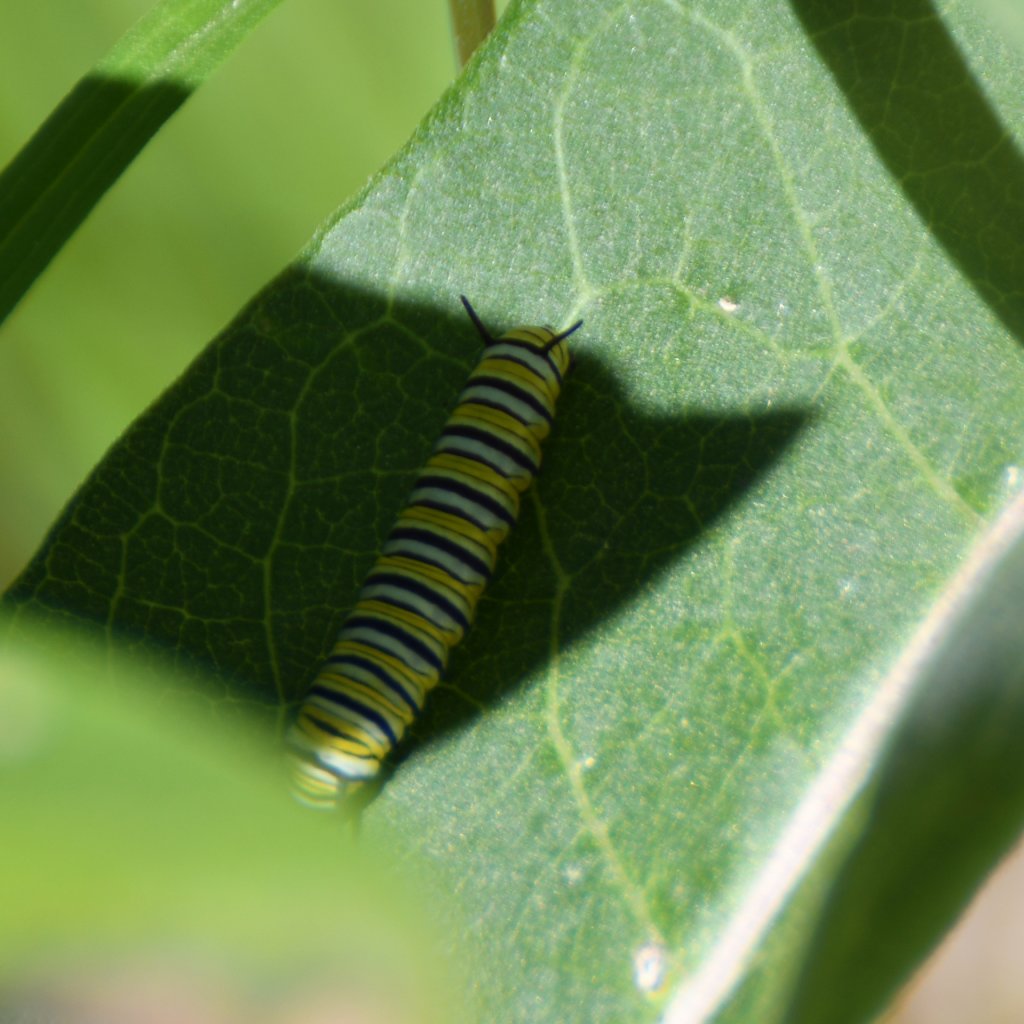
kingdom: Animalia
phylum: Arthropoda
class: Insecta
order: Lepidoptera
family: Nymphalidae
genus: Danaus
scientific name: Danaus plexippus
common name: Monarch
